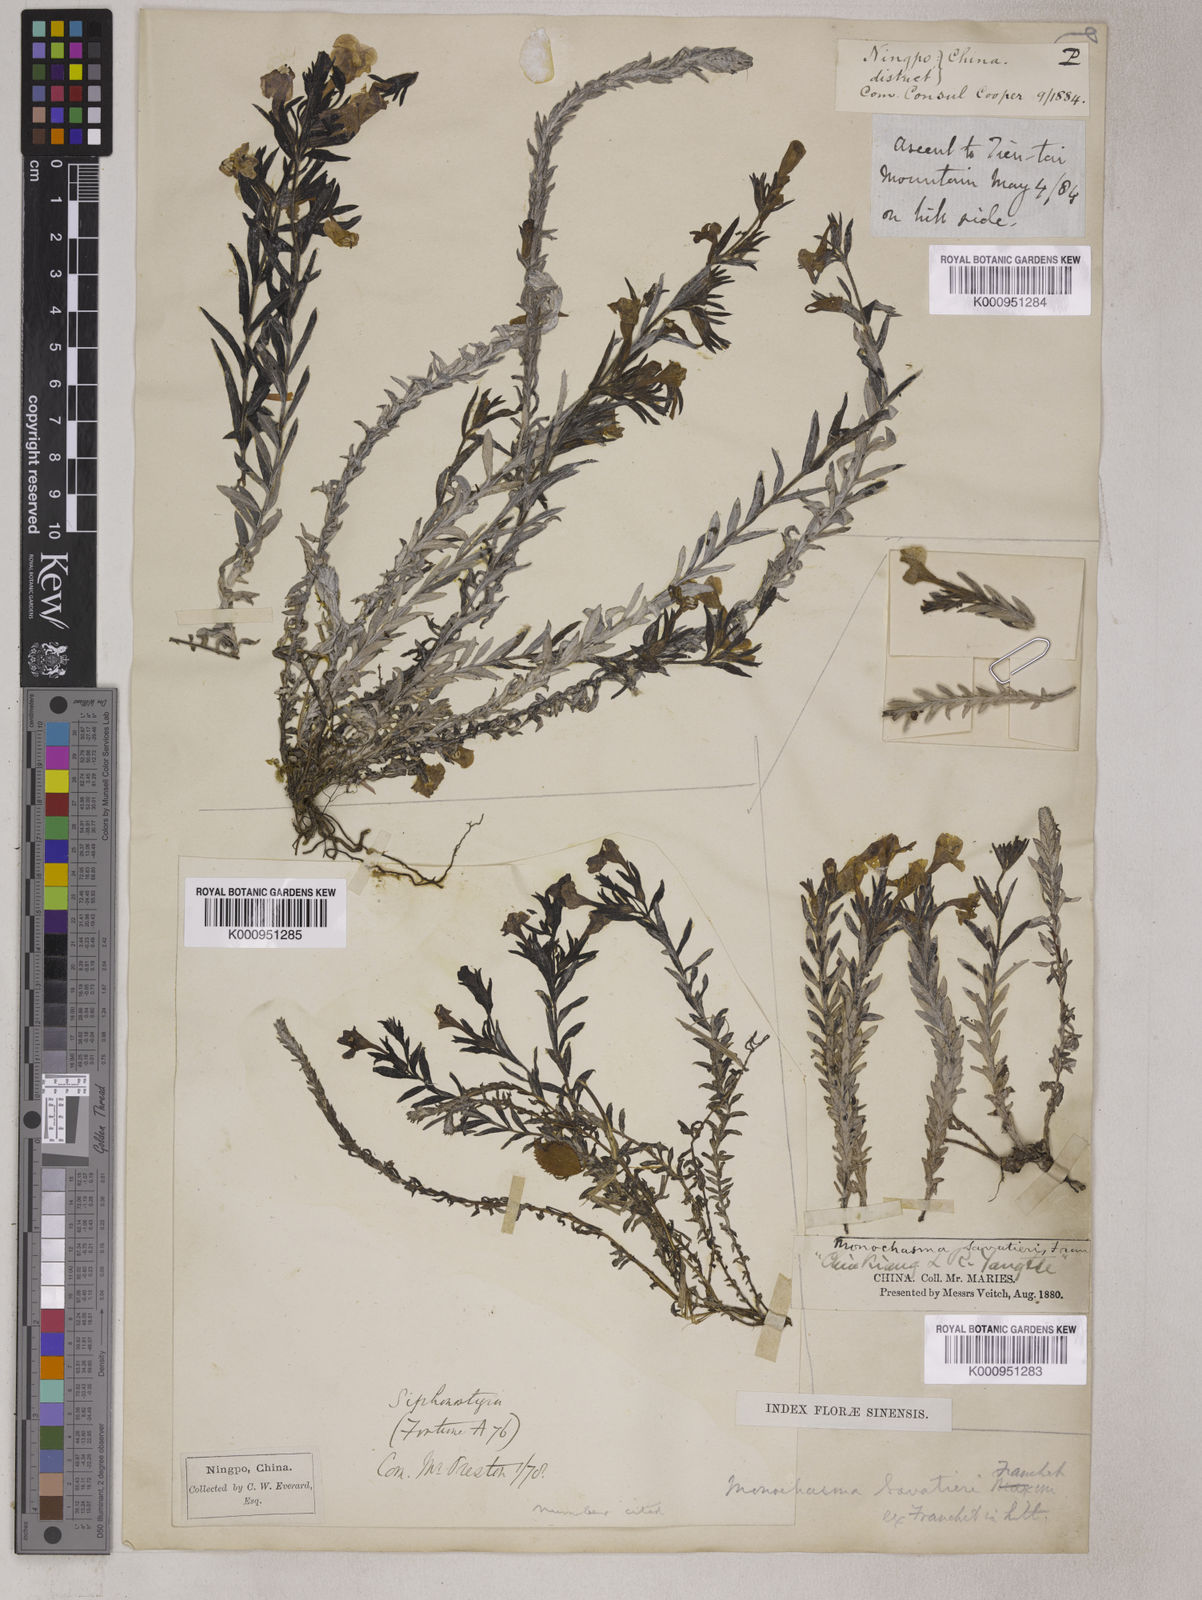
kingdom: Plantae
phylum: Tracheophyta
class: Magnoliopsida
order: Lamiales
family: Orobanchaceae
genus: Bungea
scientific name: Bungea
